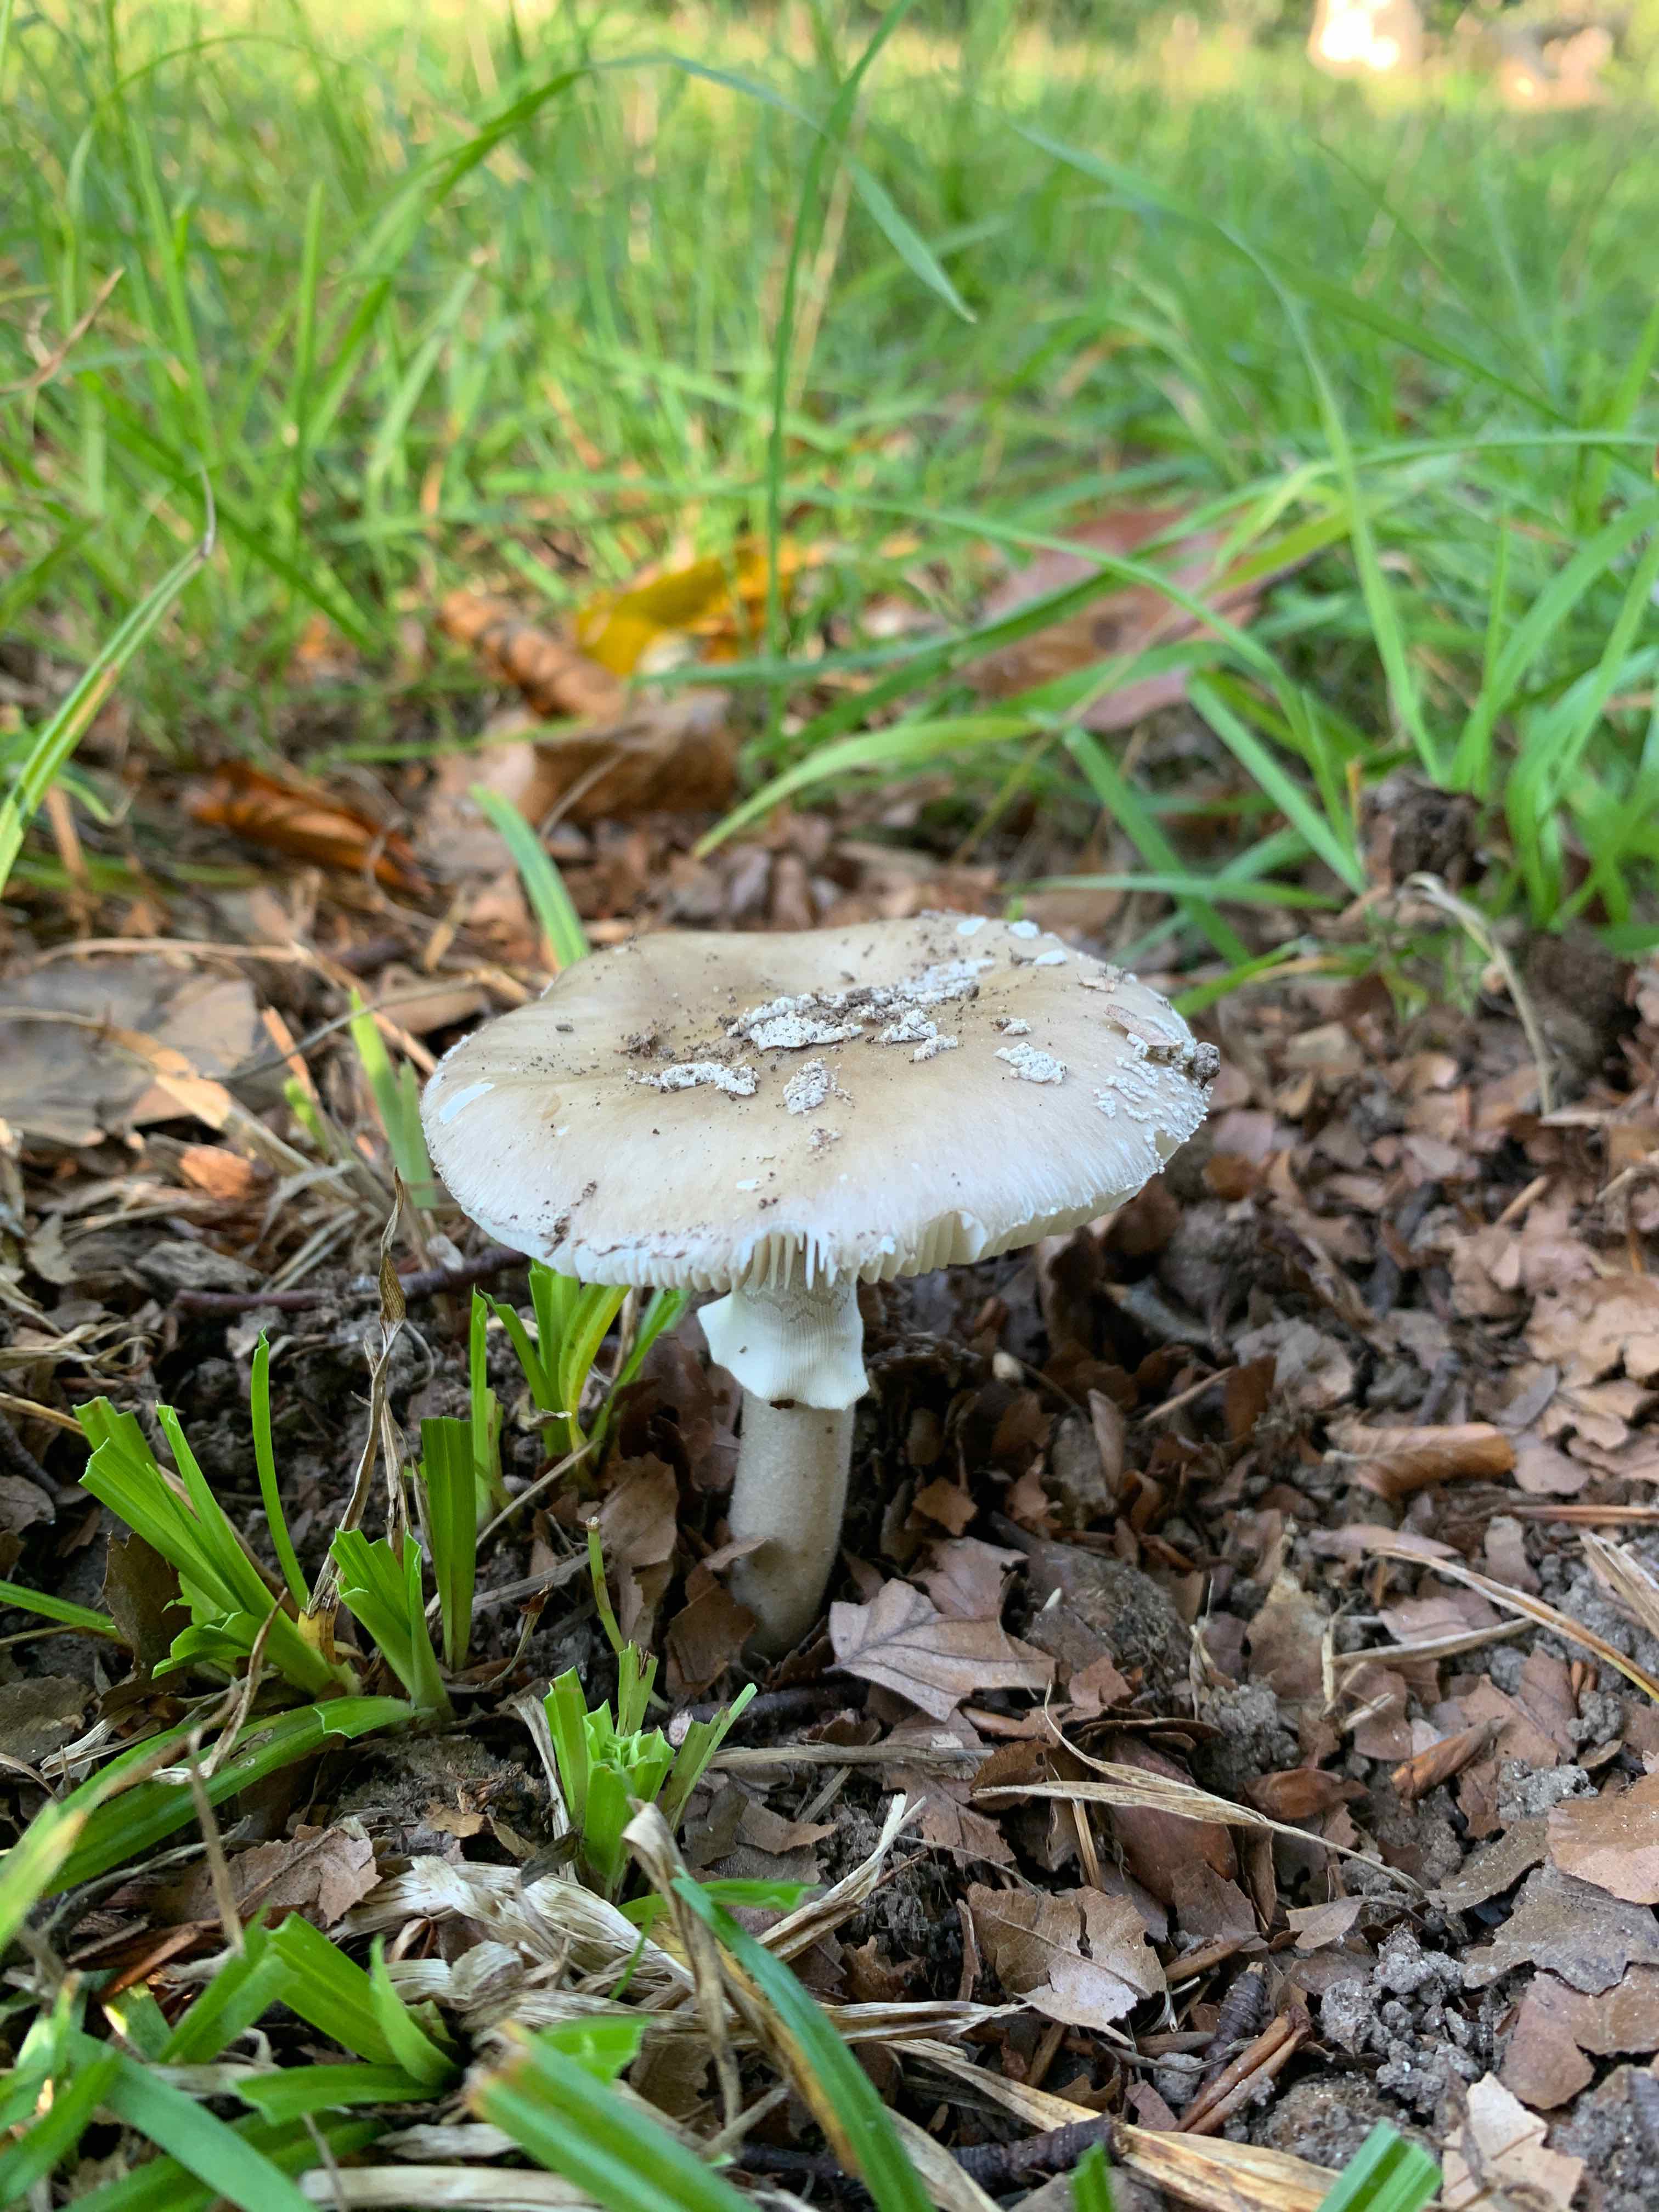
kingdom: Fungi
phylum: Basidiomycota
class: Agaricomycetes
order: Agaricales
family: Amanitaceae
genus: Amanita
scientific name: Amanita
